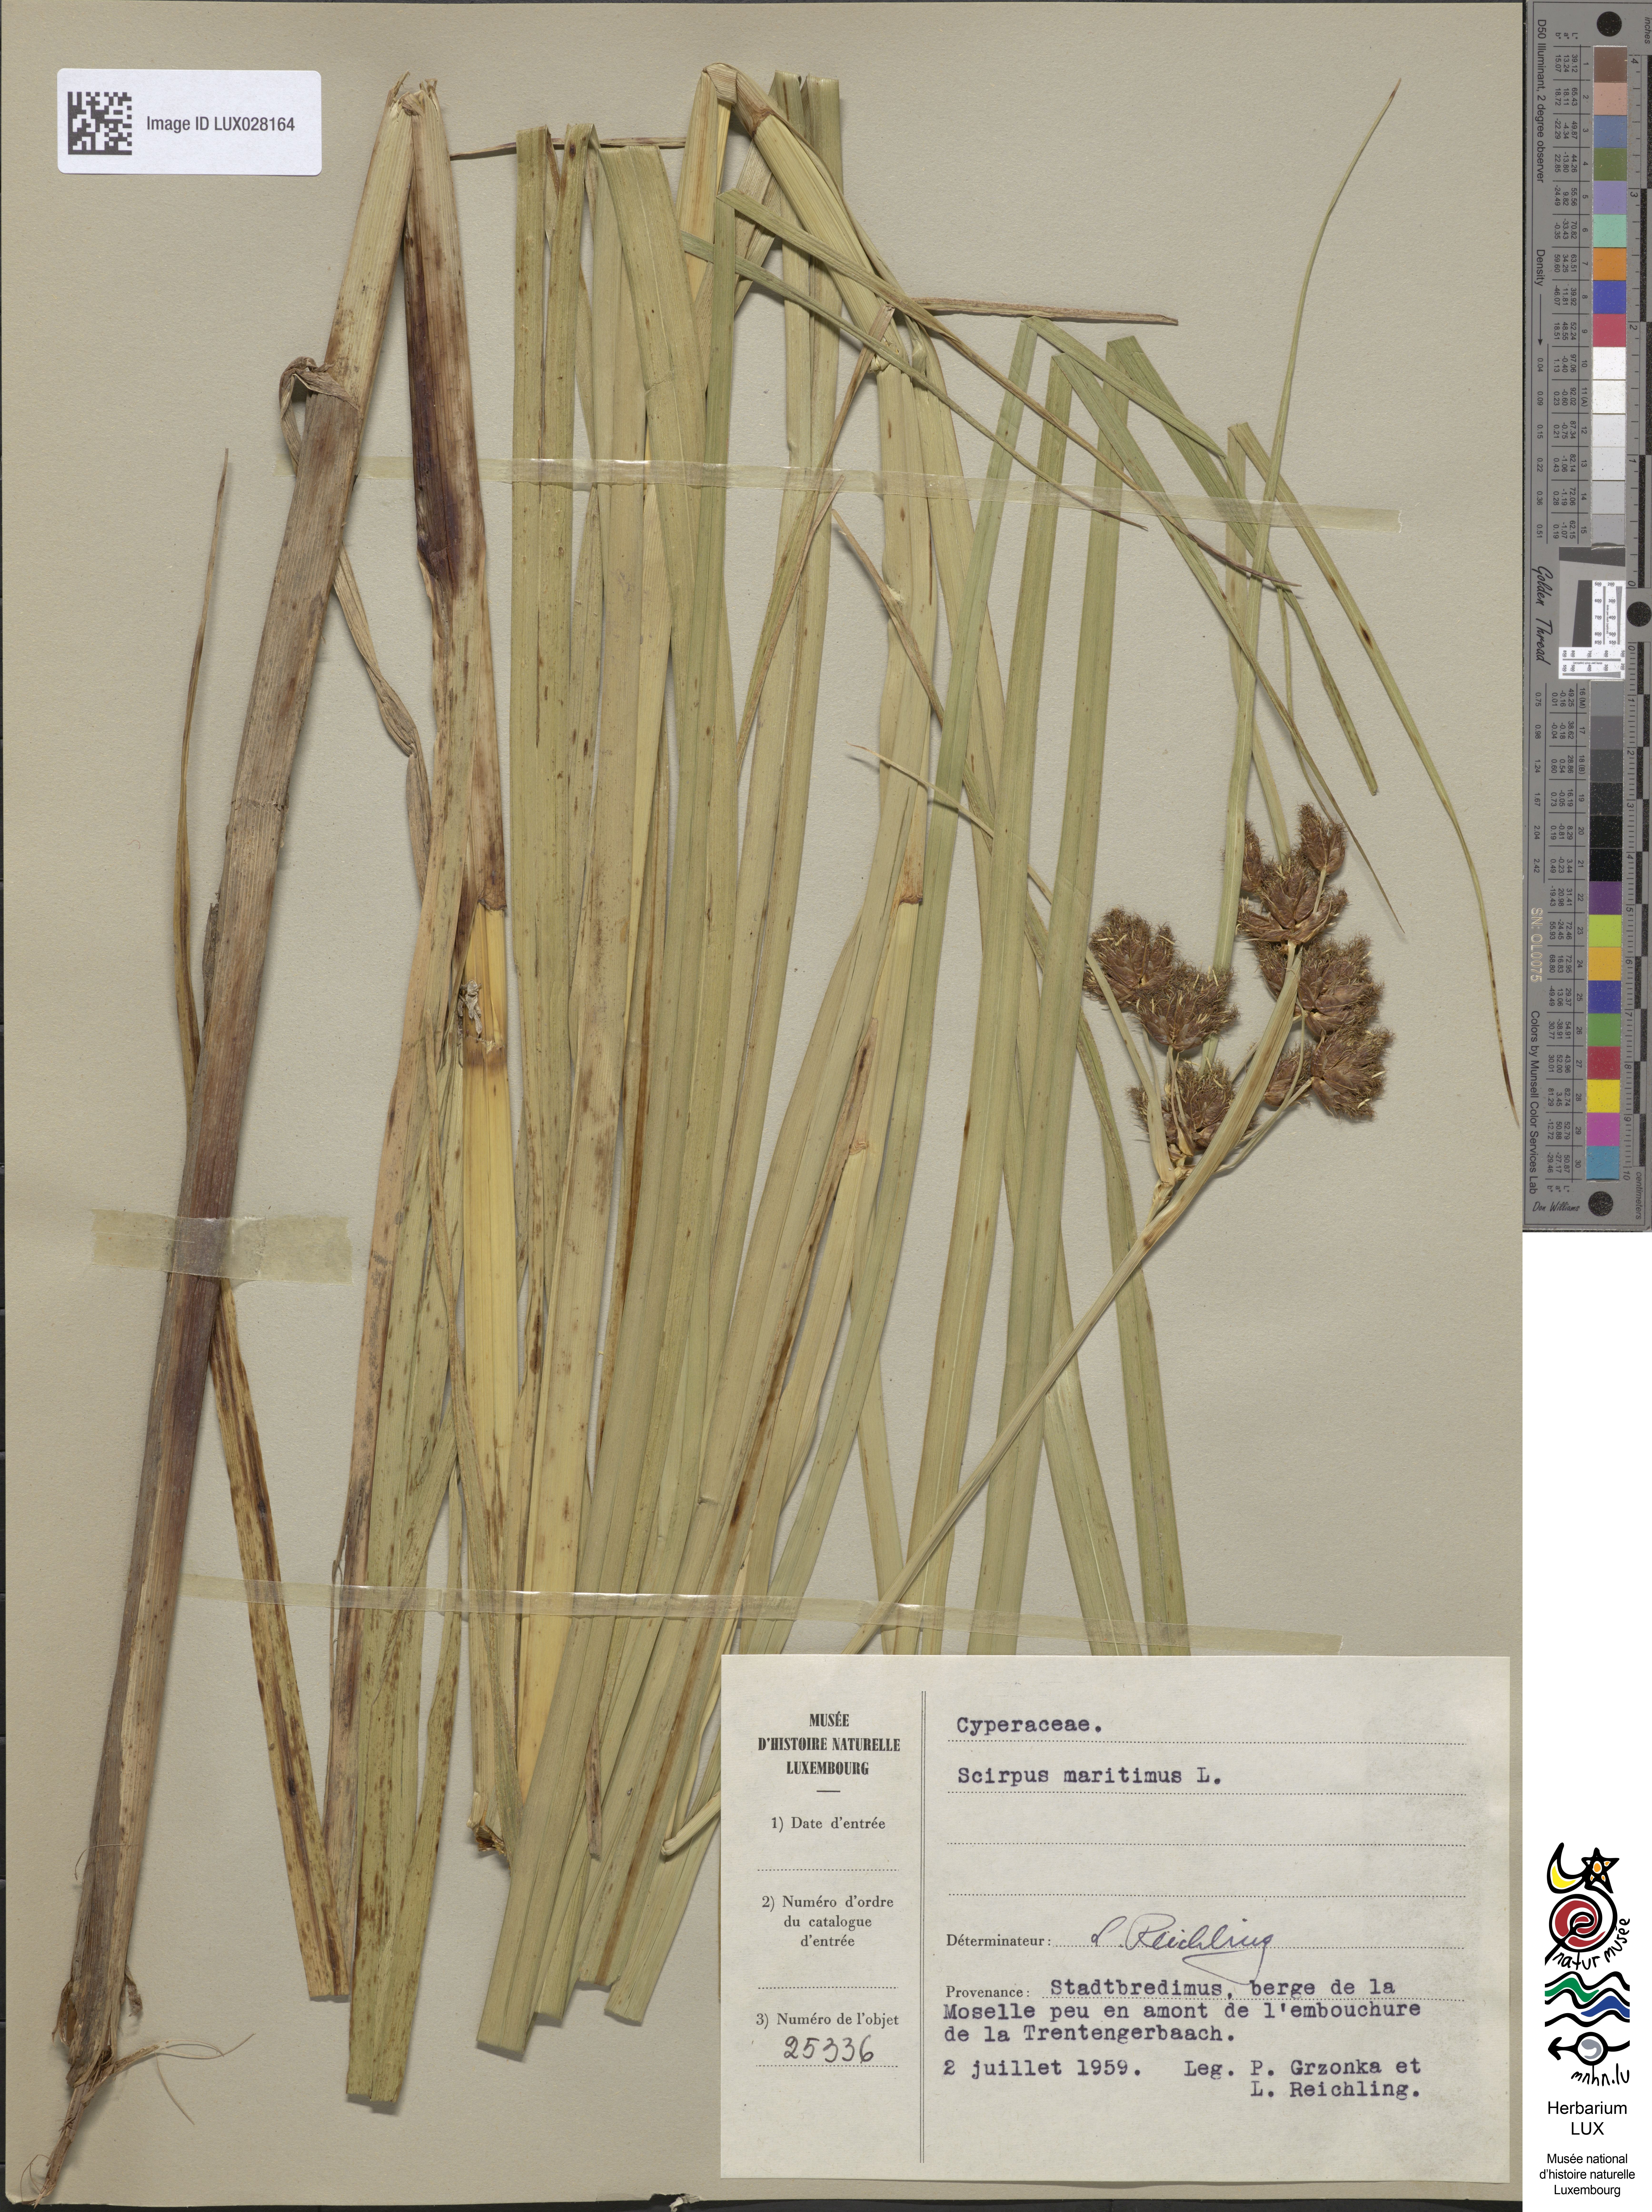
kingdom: Plantae
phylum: Tracheophyta
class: Liliopsida
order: Poales
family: Cyperaceae
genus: Bolboschoenus
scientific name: Bolboschoenus maritimus
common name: Sea club-rush
